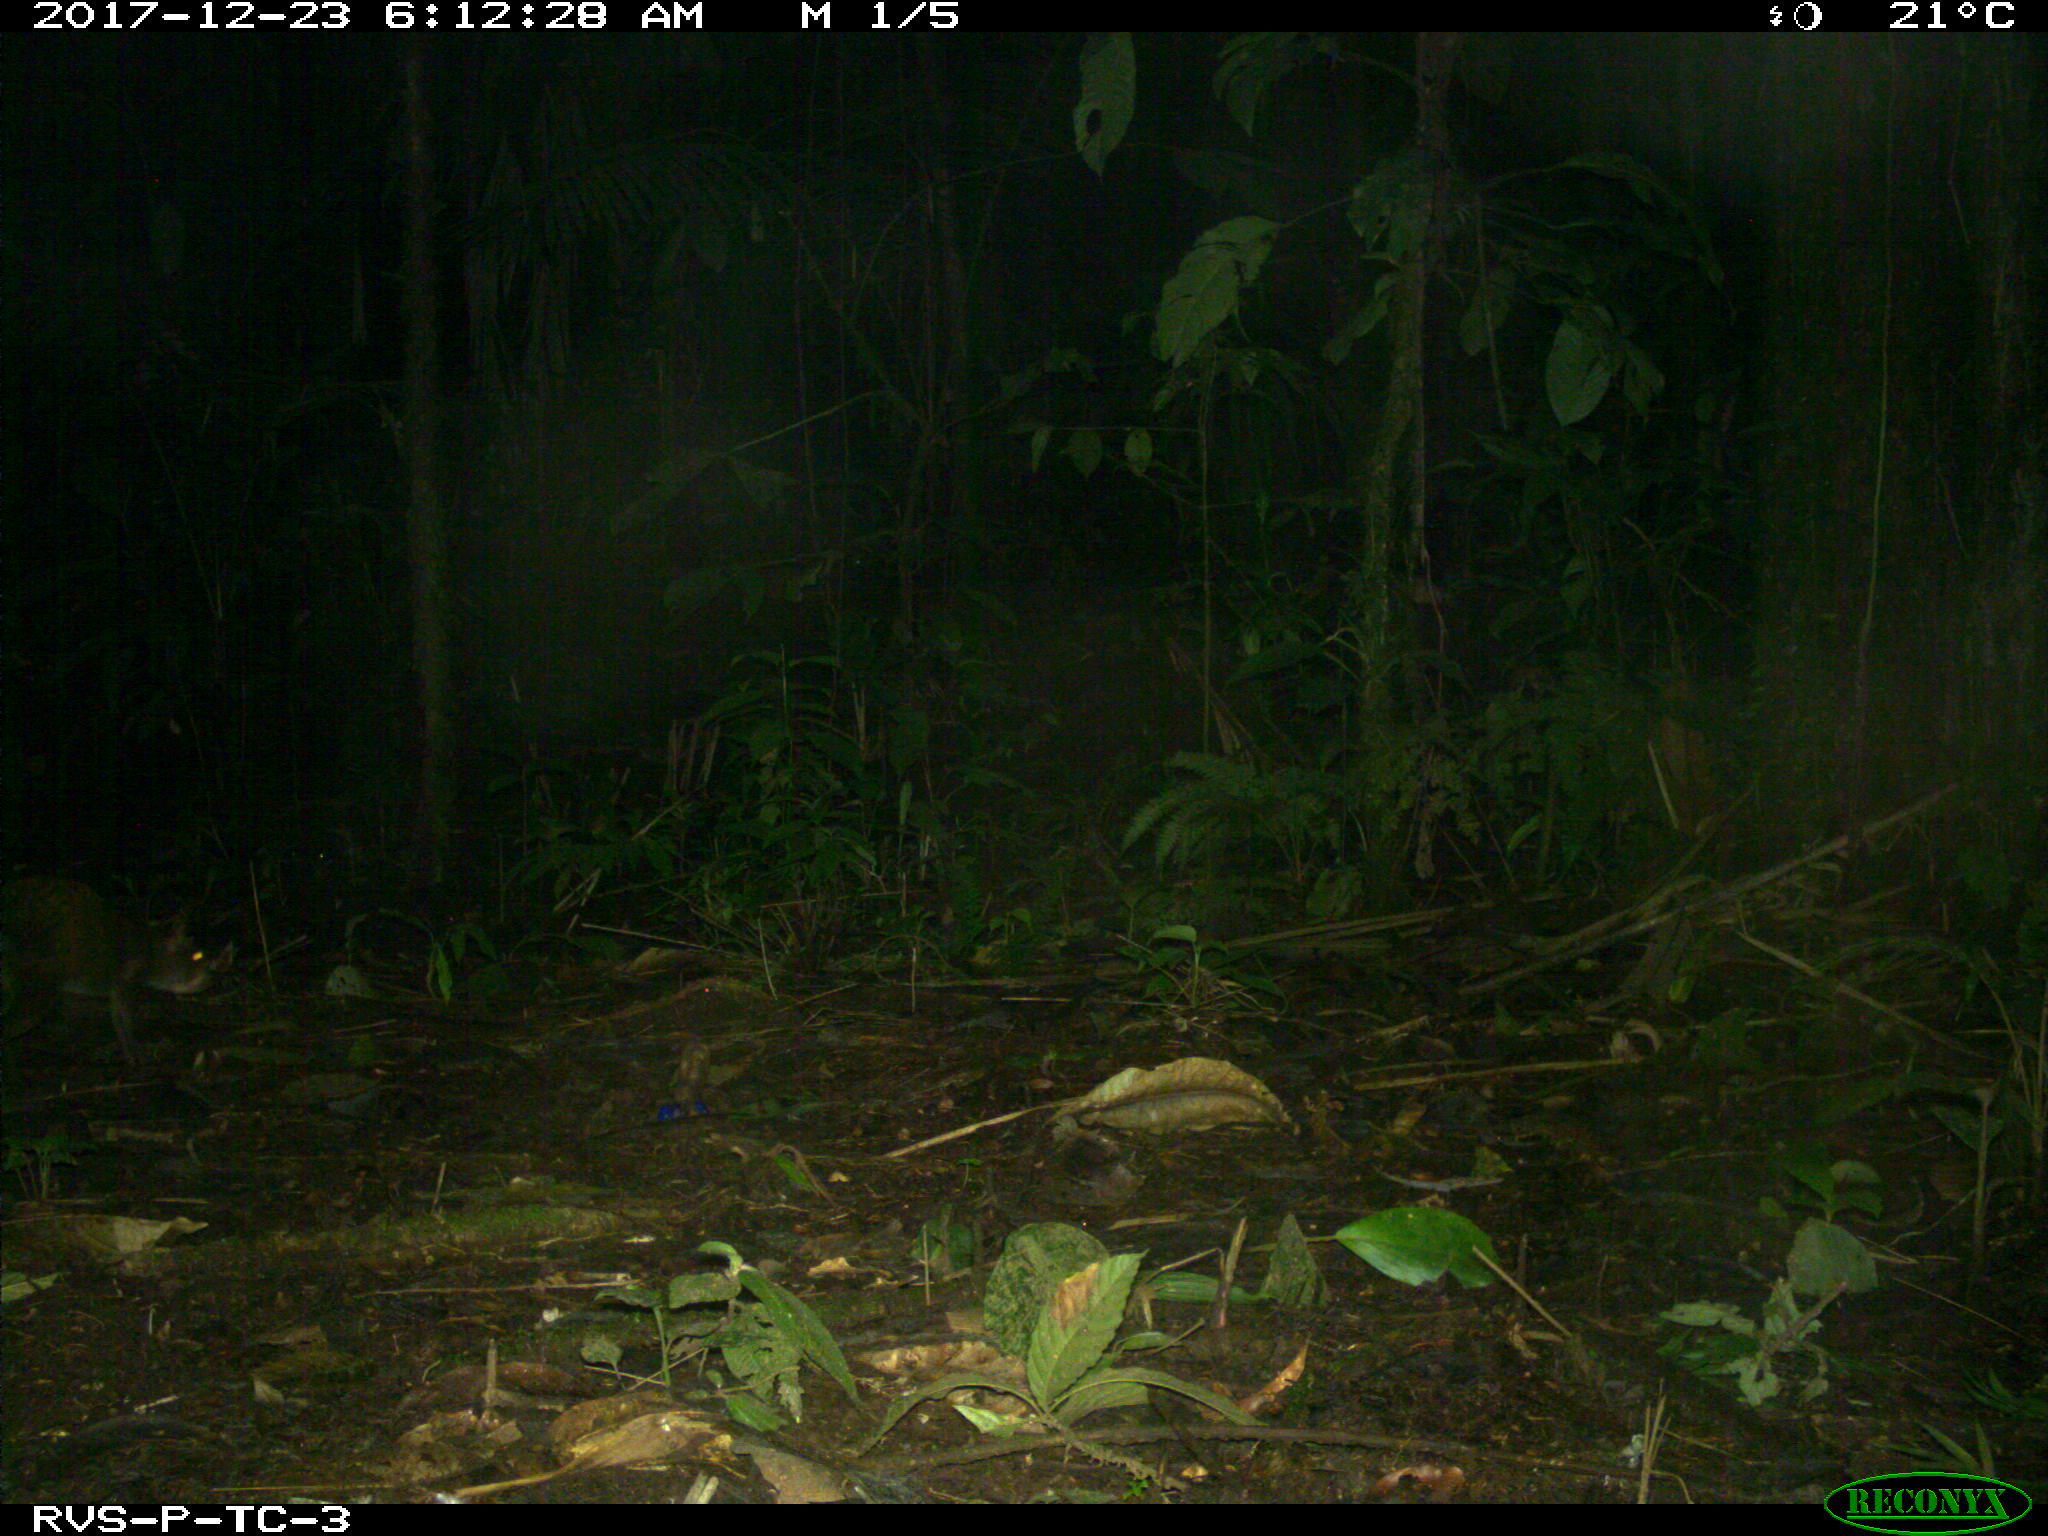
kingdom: Animalia
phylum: Chordata
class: Mammalia
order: Rodentia
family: Dasyproctidae
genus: Dasyprocta
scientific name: Dasyprocta punctata
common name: Central american agouti
